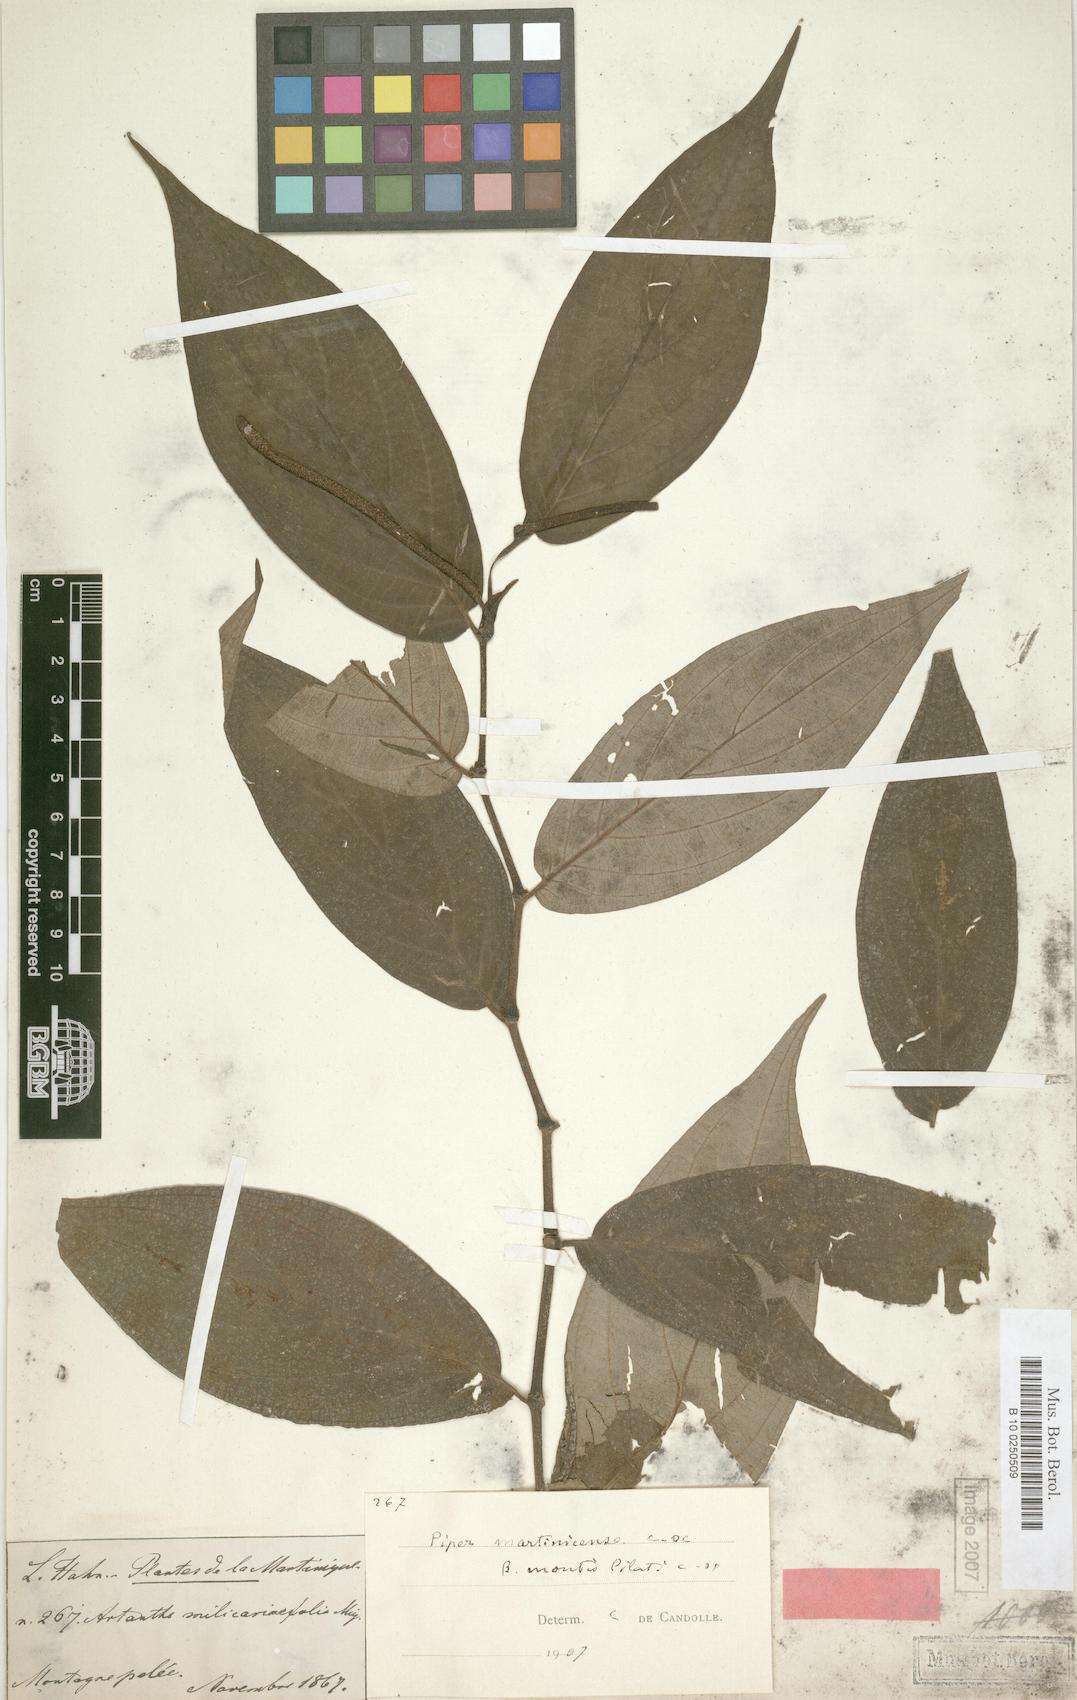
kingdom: Plantae
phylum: Tracheophyta
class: Magnoliopsida
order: Piperales
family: Piperaceae
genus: Piper
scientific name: Piper aduncum
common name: Spiked pepper
